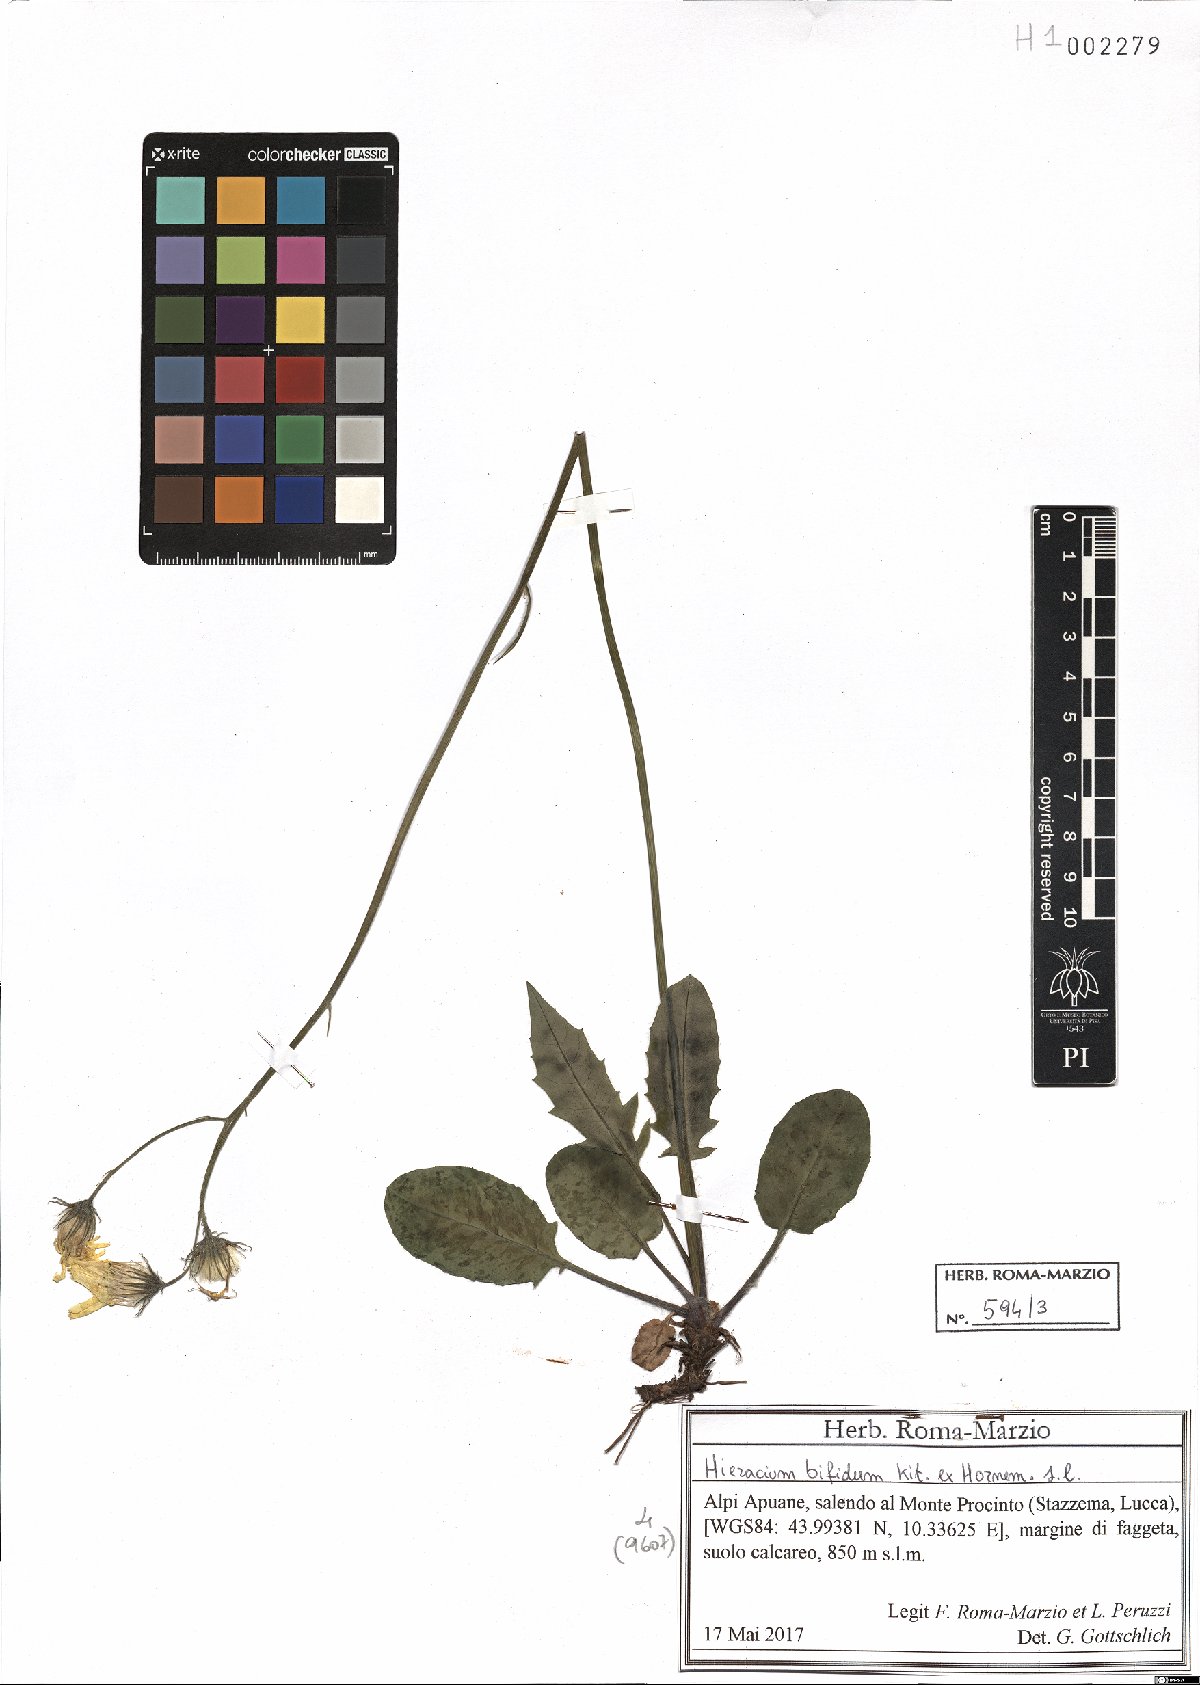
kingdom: Plantae
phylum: Tracheophyta
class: Magnoliopsida
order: Asterales
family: Asteraceae
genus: Hieracium
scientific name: Hieracium bifidum
